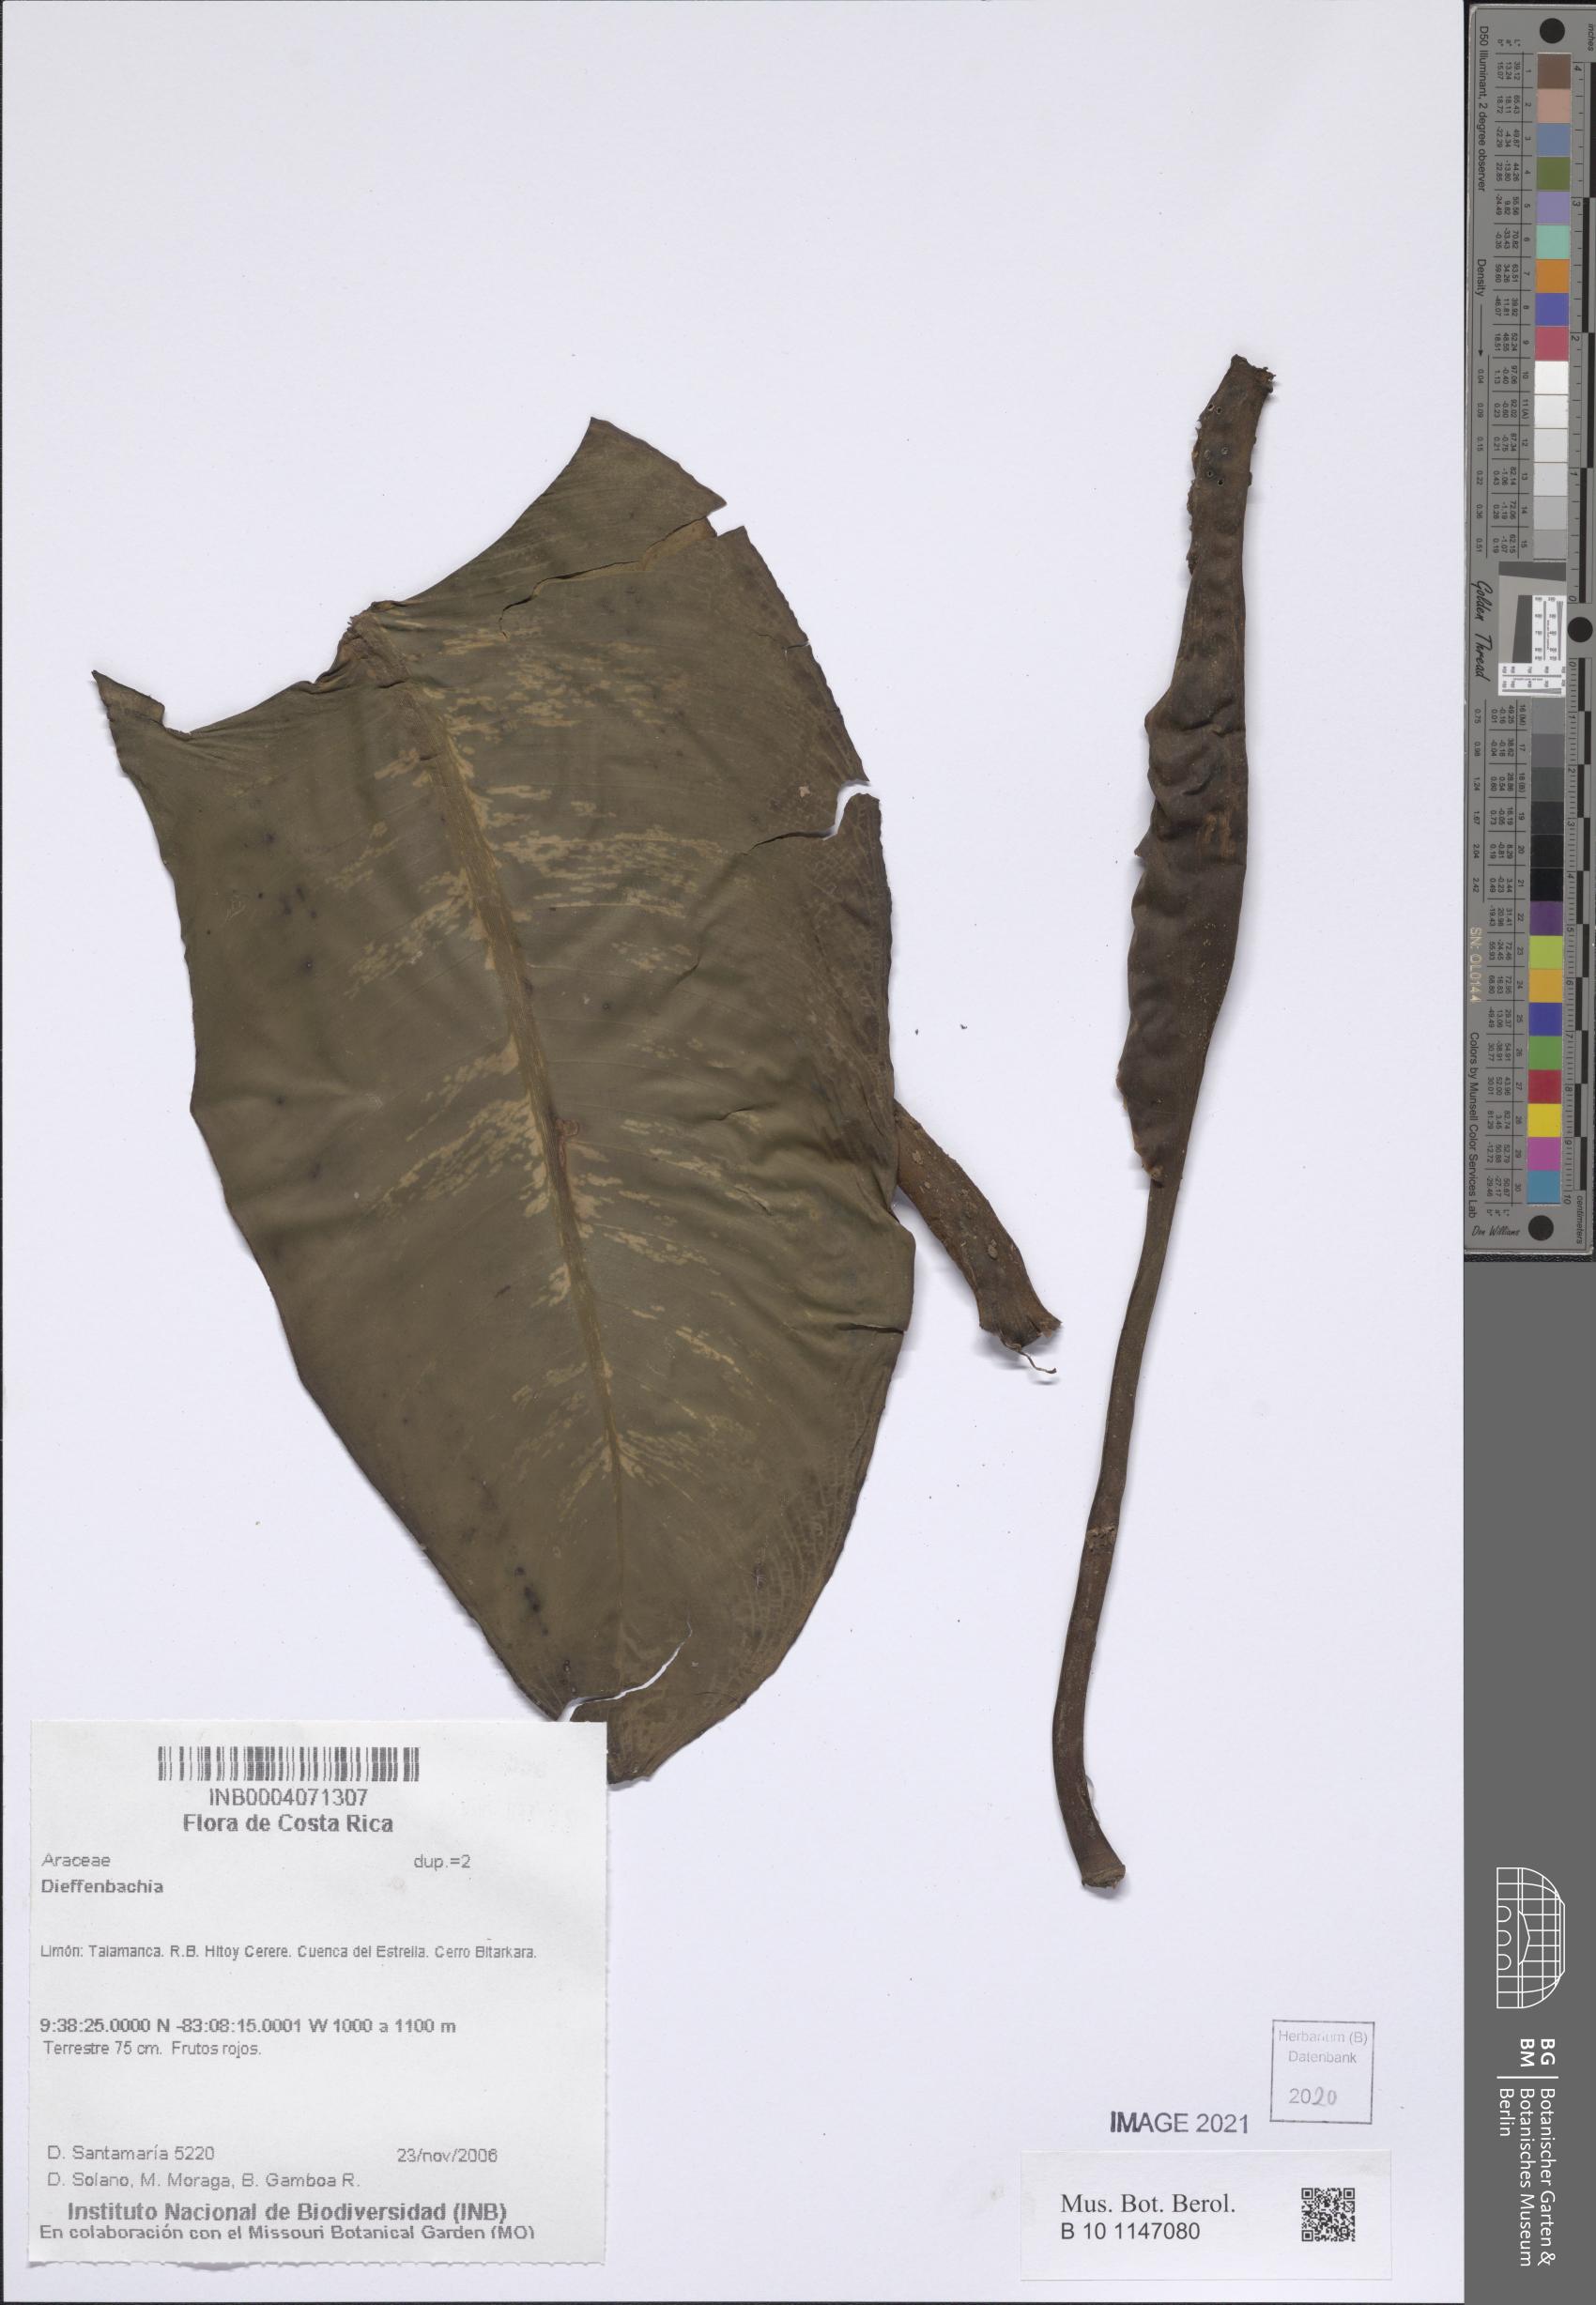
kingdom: Plantae
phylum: Tracheophyta
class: Liliopsida
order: Alismatales
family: Araceae
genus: Dieffenbachia
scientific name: Dieffenbachia
